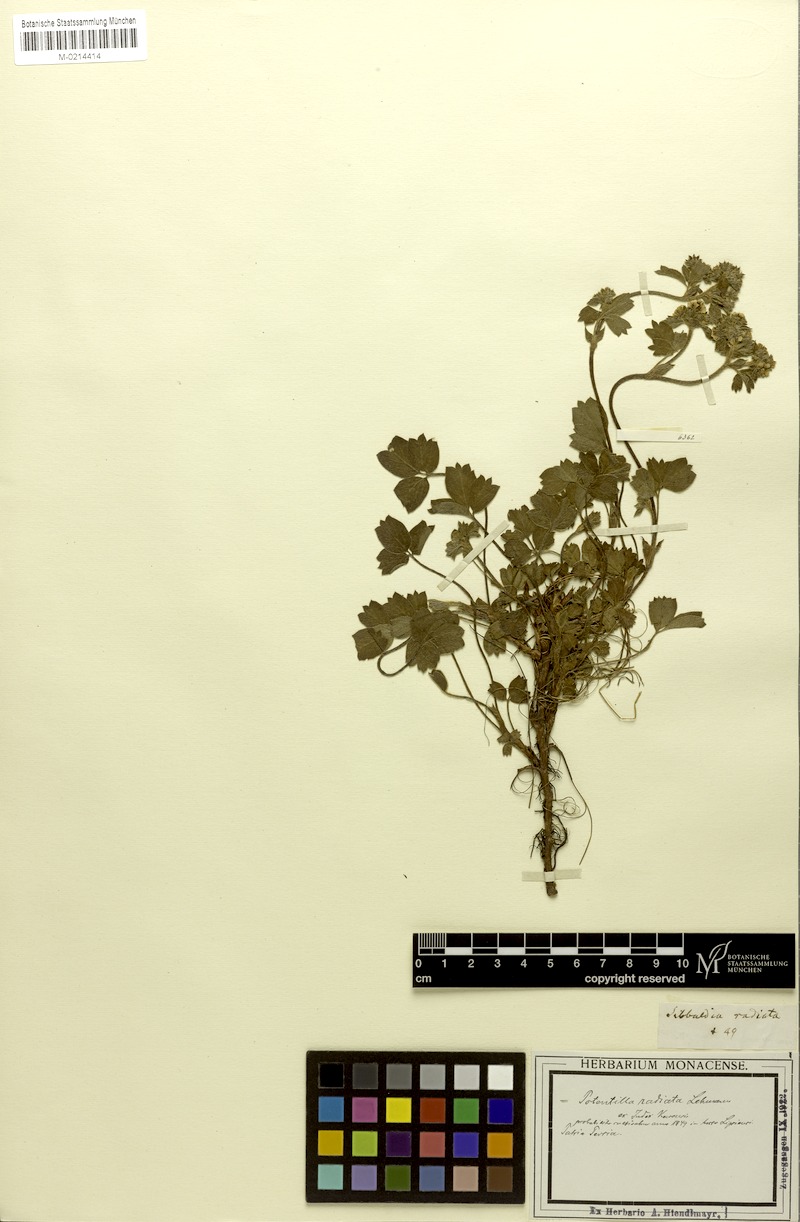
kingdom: Plantae
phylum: Tracheophyta
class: Magnoliopsida
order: Rosales
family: Rosaceae
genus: Potentilla
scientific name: Potentilla radiata
